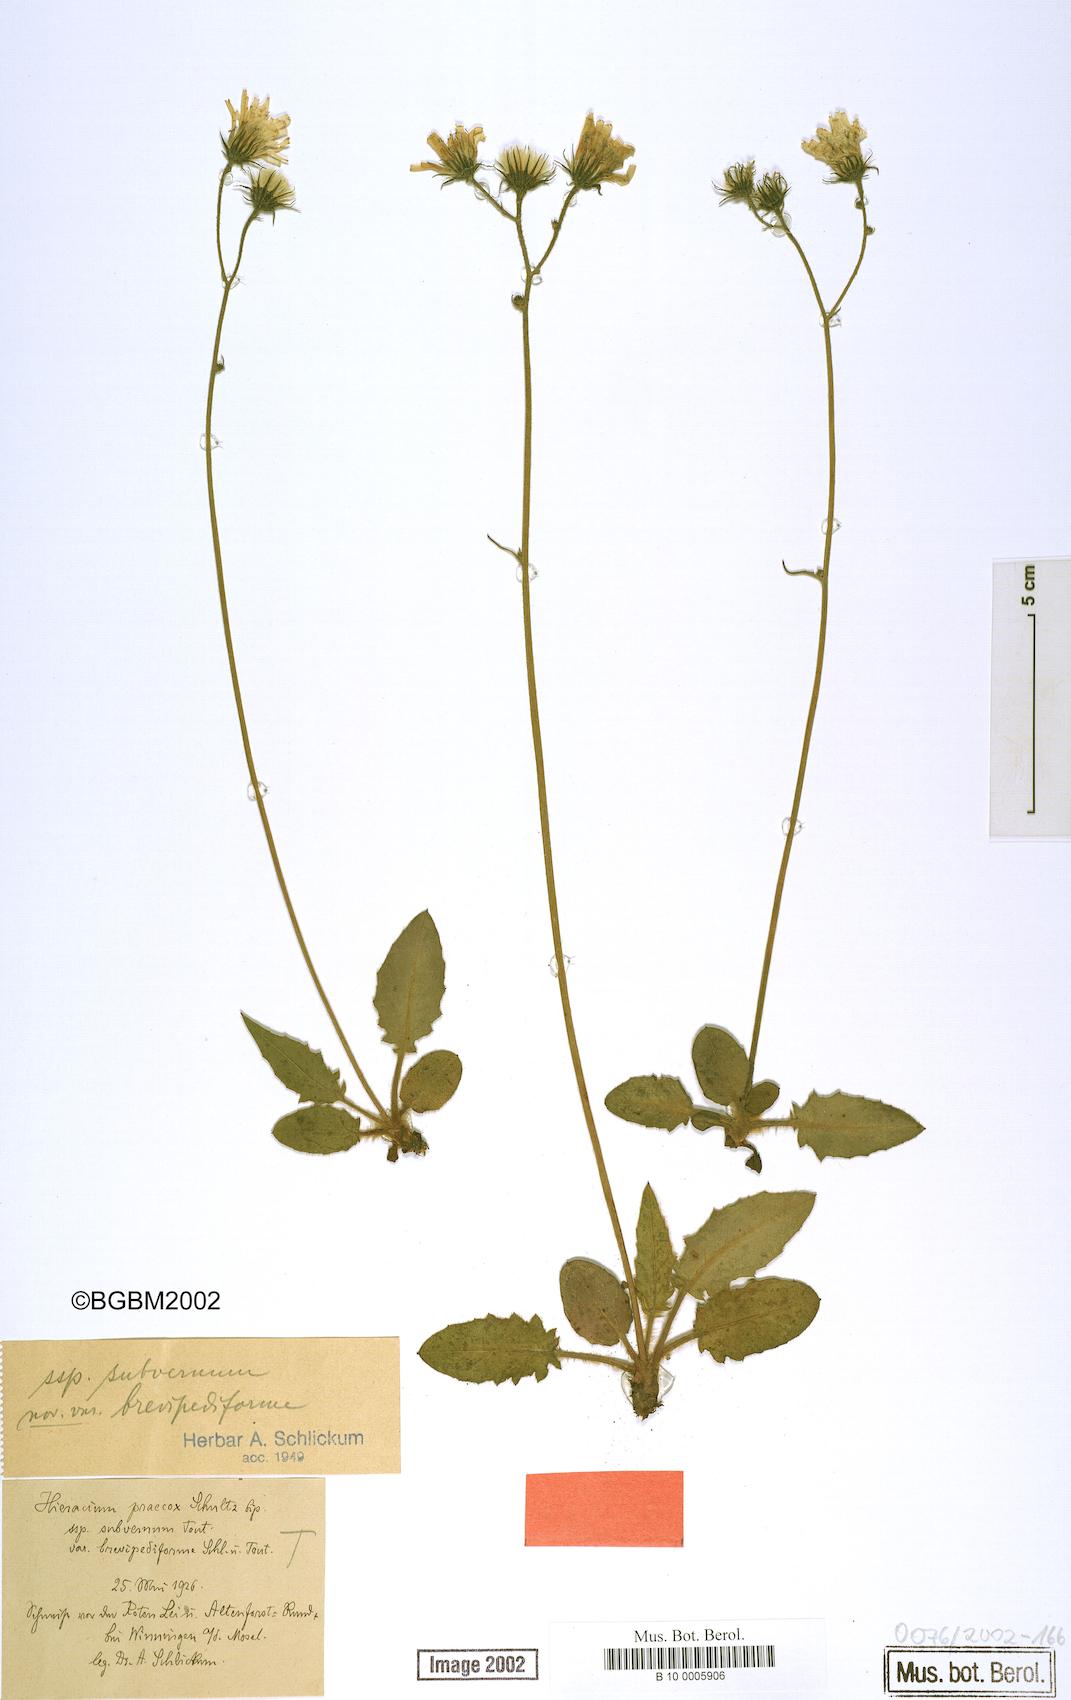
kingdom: Plantae
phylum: Tracheophyta
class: Magnoliopsida
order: Asterales
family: Asteraceae
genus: Hieracium
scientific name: Hieracium praecox
